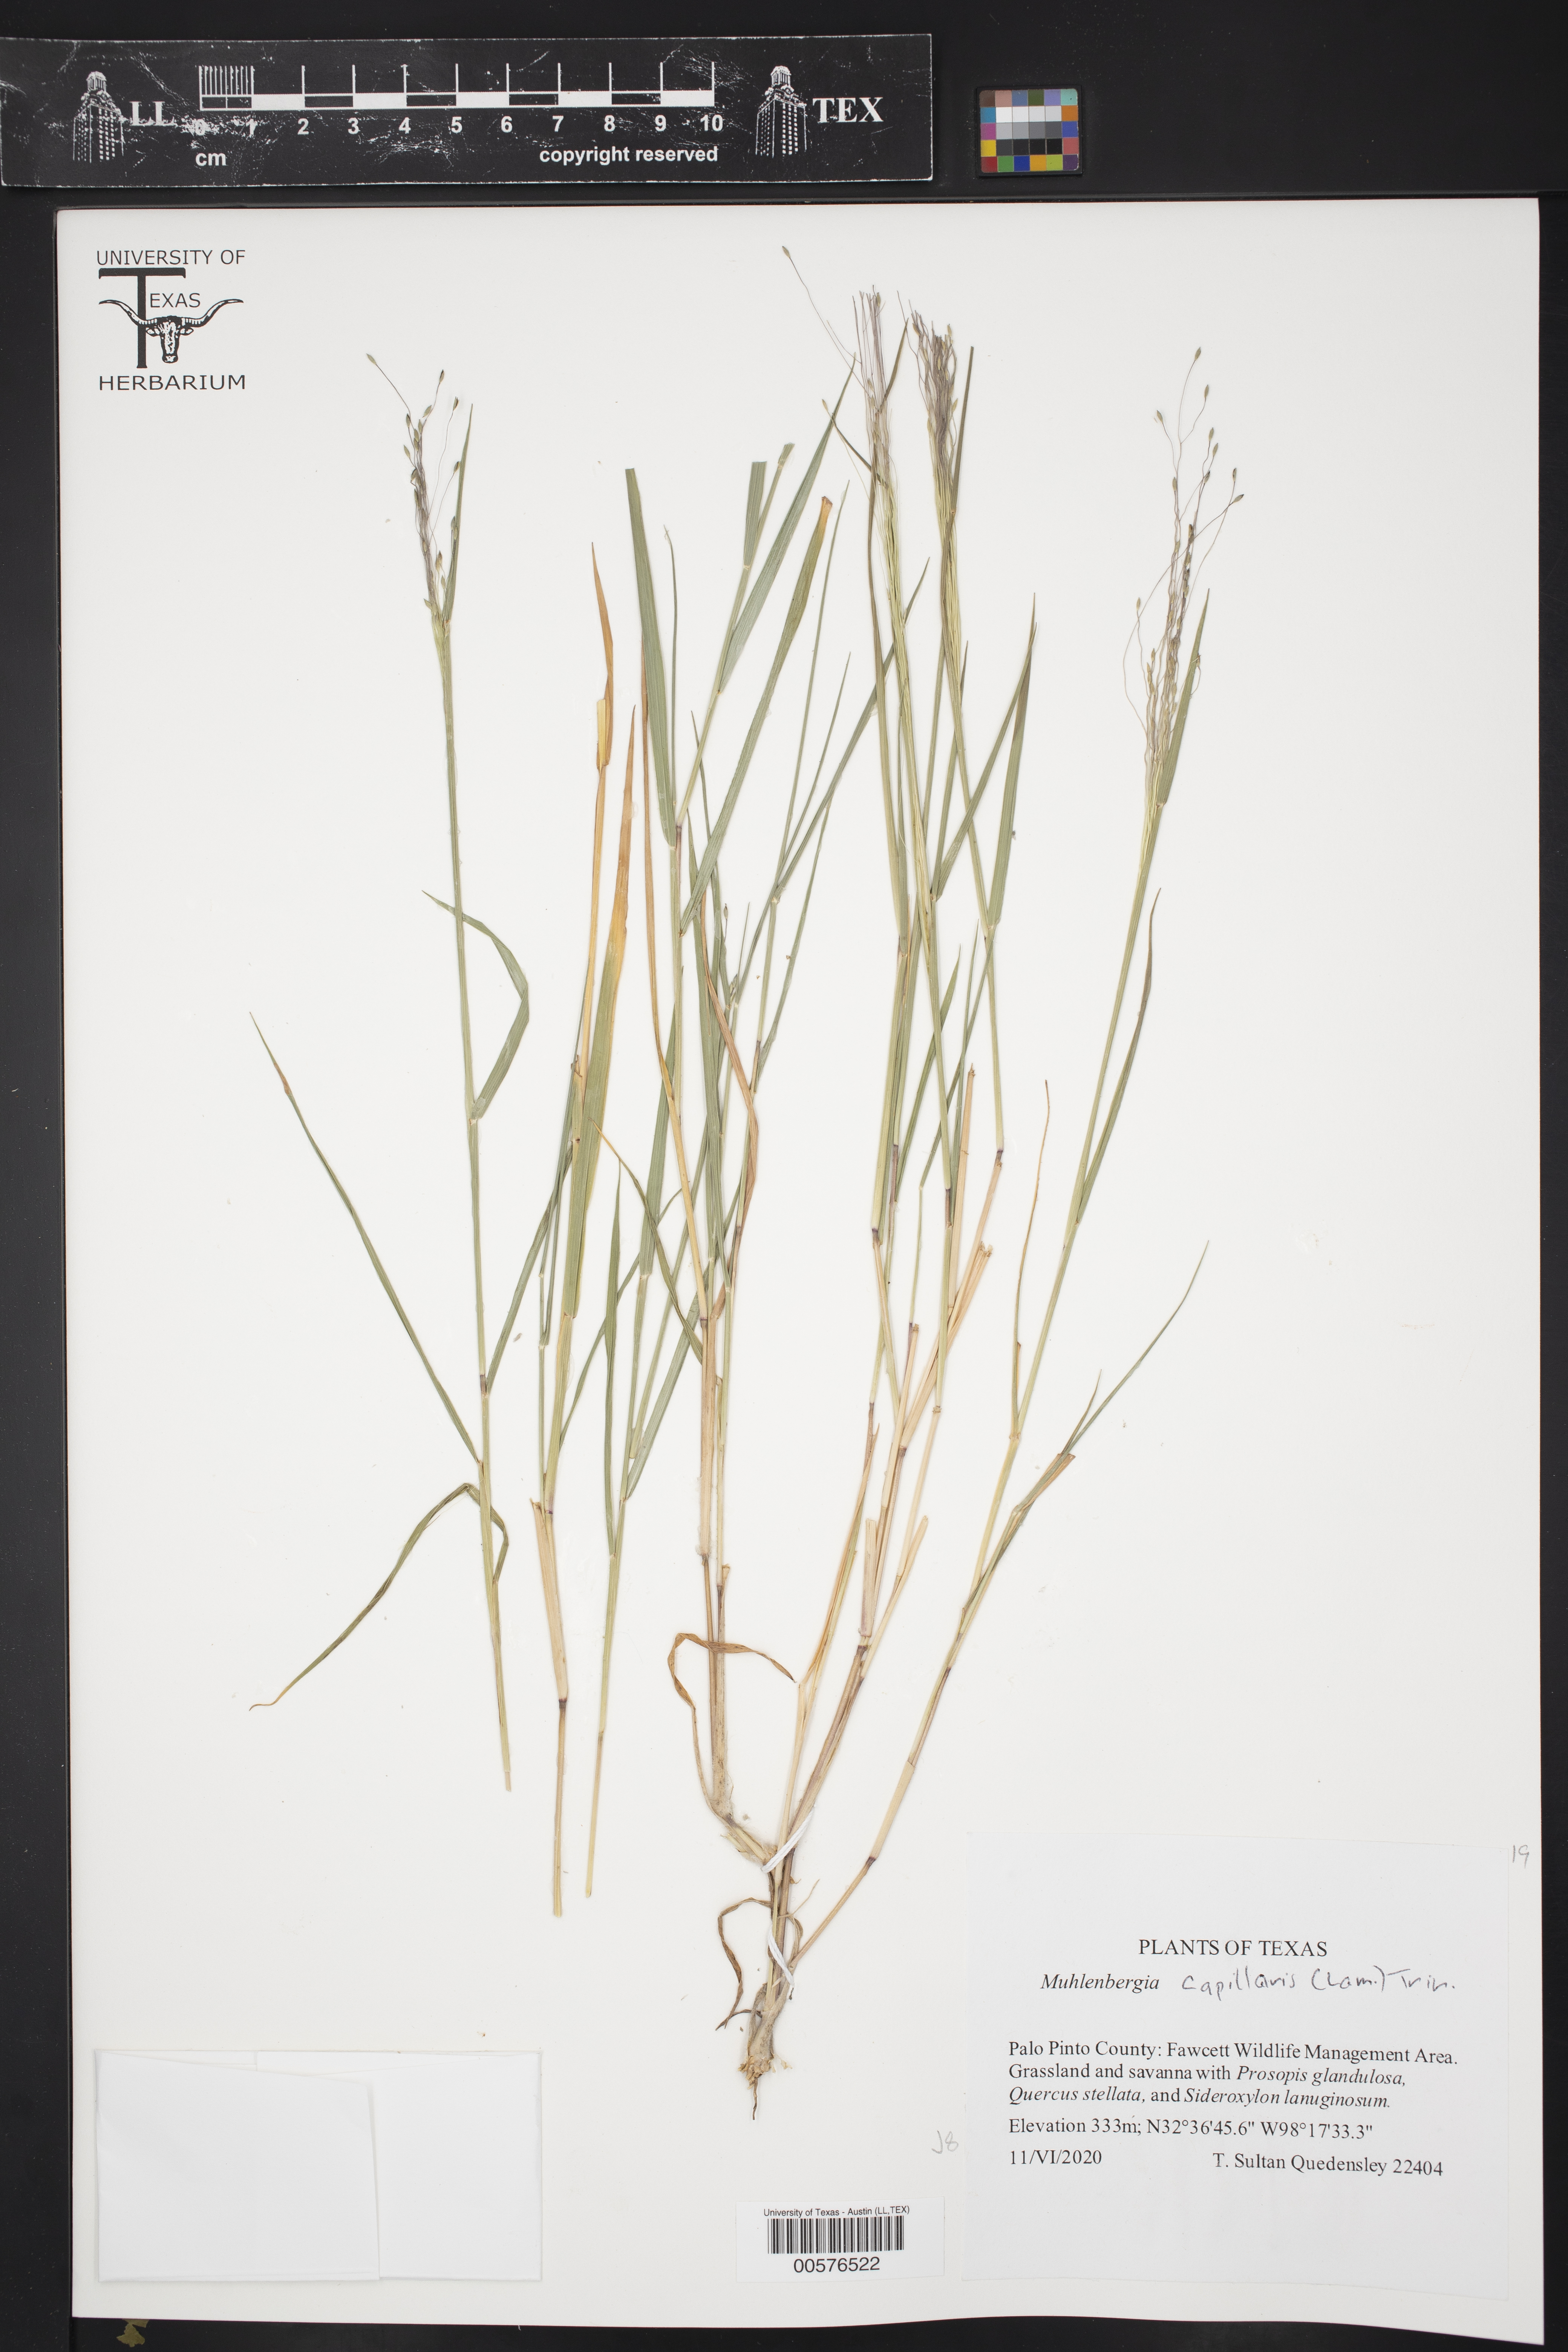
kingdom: Plantae
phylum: Tracheophyta
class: Liliopsida
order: Poales
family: Poaceae
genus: Digitaria
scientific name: Digitaria cognata
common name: Fall witchgrass
